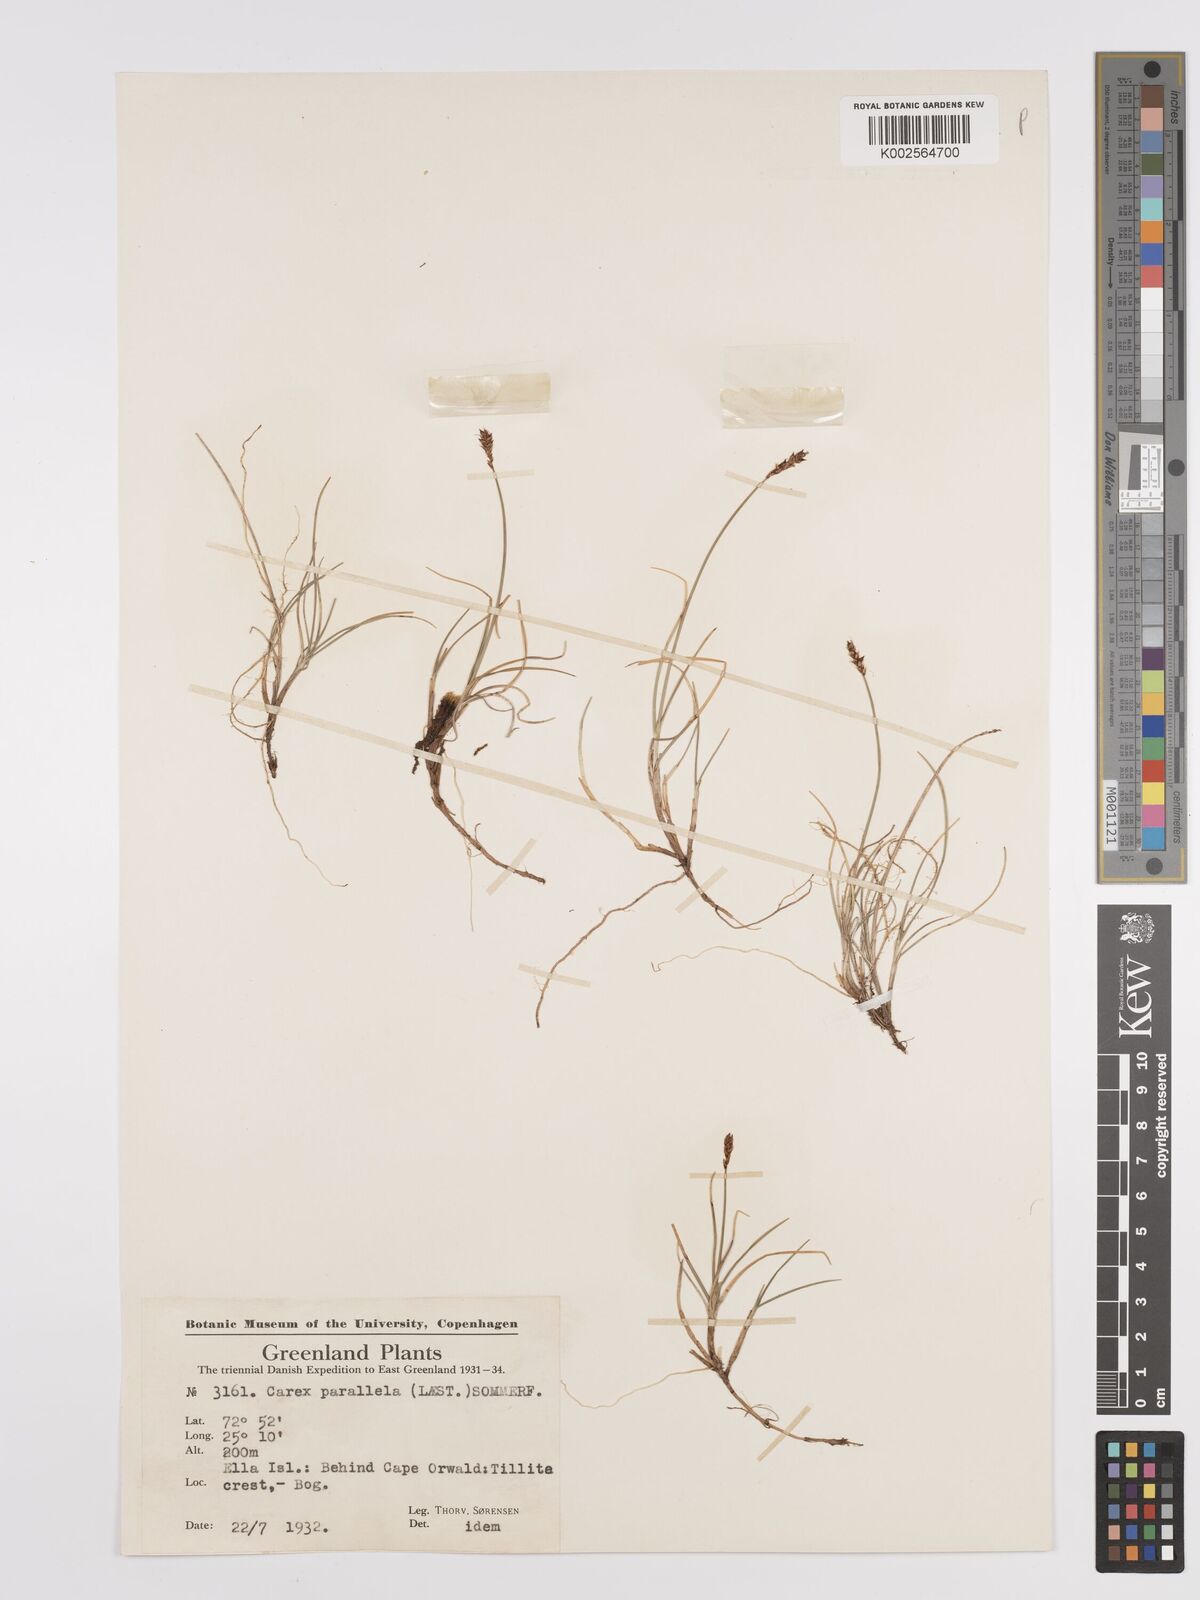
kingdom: Plantae
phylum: Tracheophyta
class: Liliopsida
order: Poales
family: Cyperaceae
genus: Carex
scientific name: Carex parallela
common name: Parallel sedge
